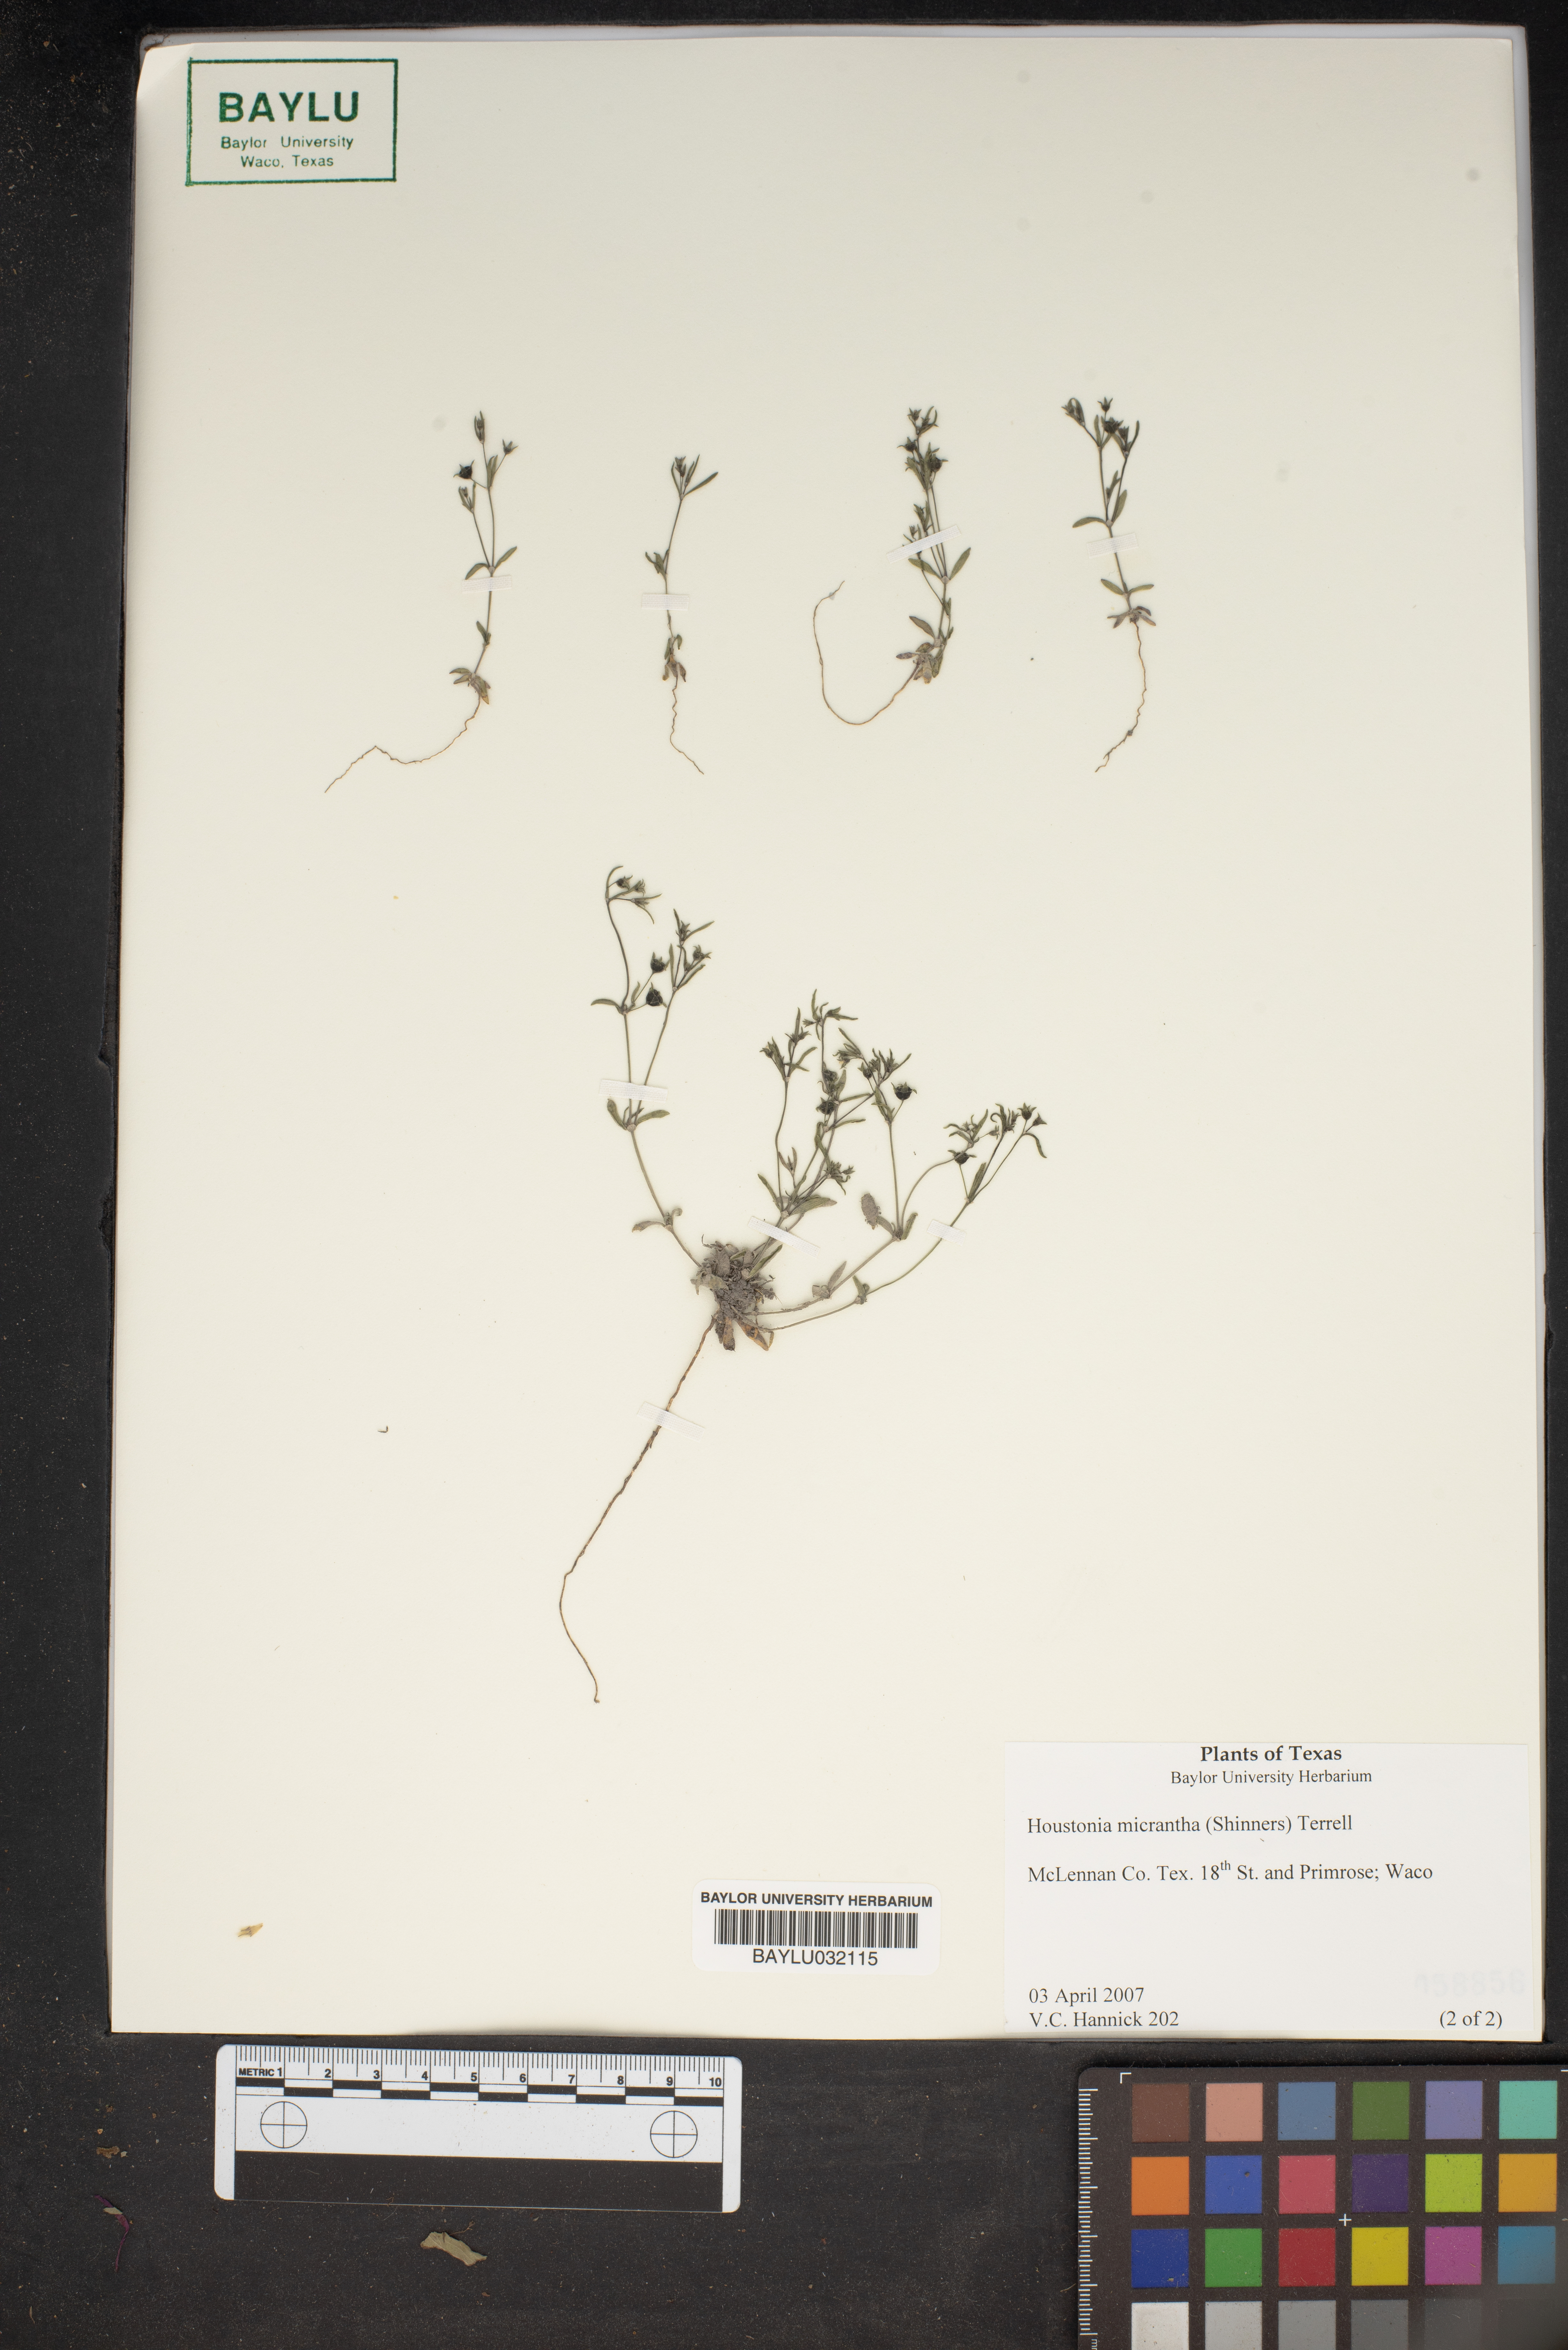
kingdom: Plantae
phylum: Tracheophyta
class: Magnoliopsida
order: Gentianales
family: Rubiaceae
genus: Houstonia
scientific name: Houstonia micrantha
